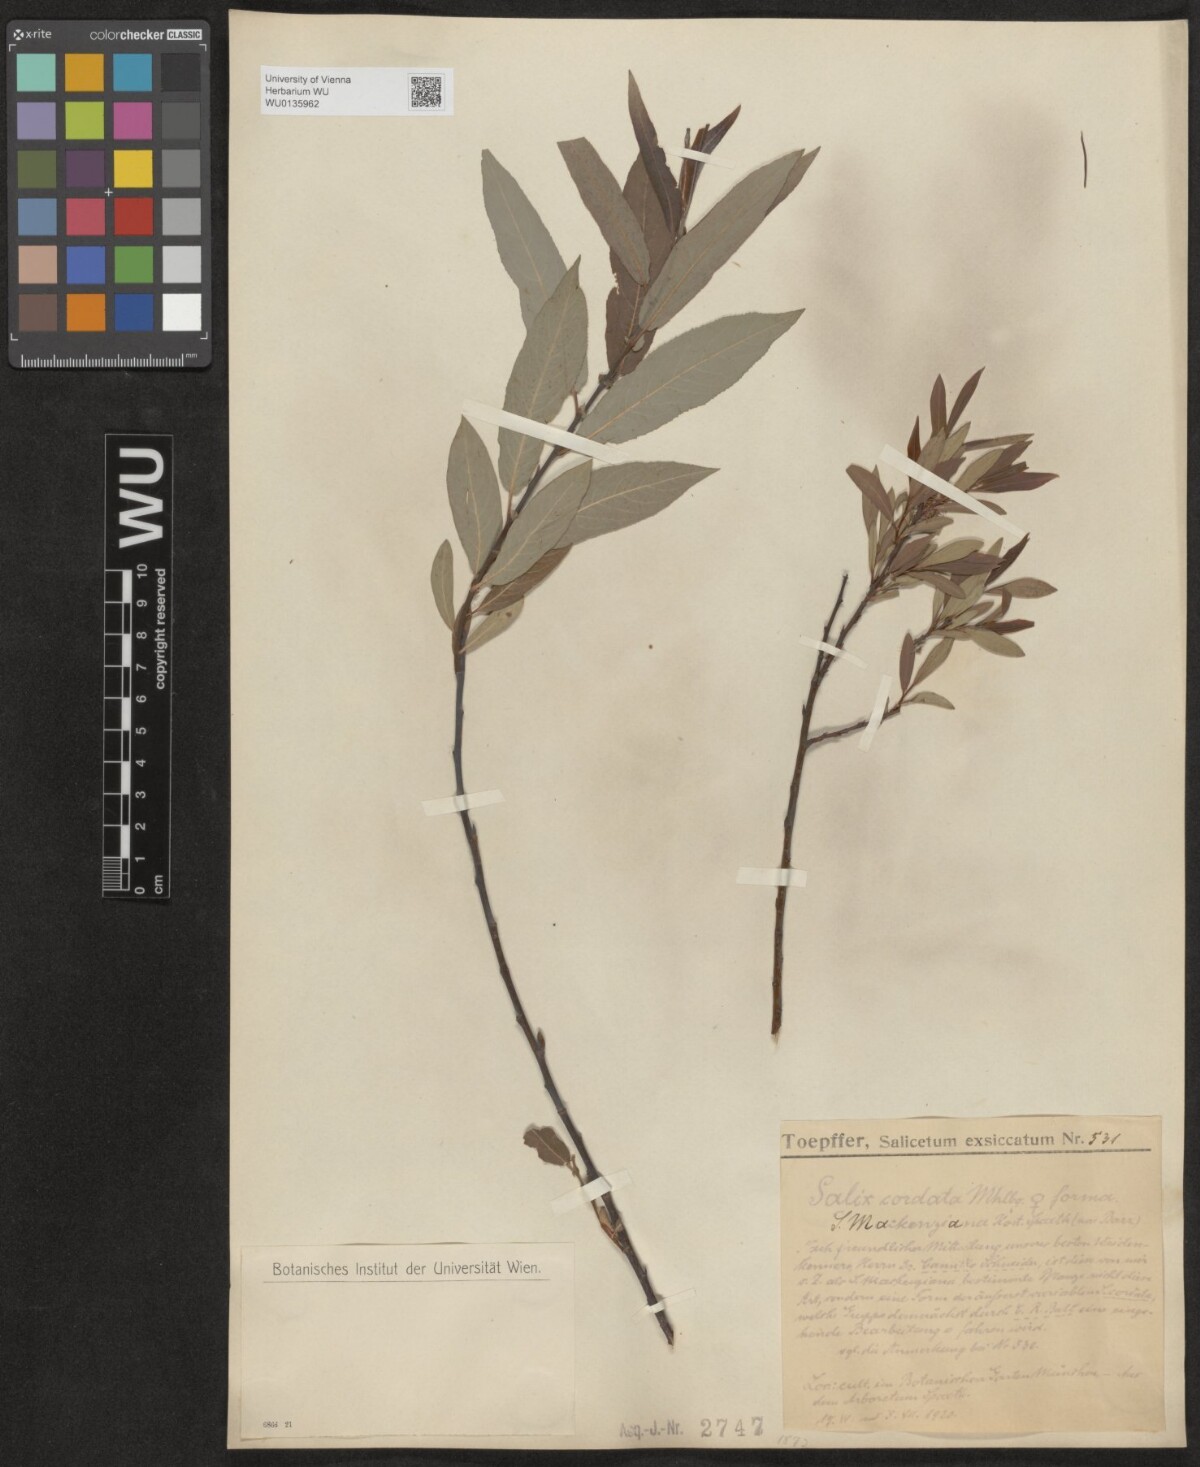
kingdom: Plantae
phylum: Tracheophyta
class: Magnoliopsida
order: Malpighiales
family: Salicaceae
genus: Salix
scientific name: Salix cordata
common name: Heart-leaf willow
